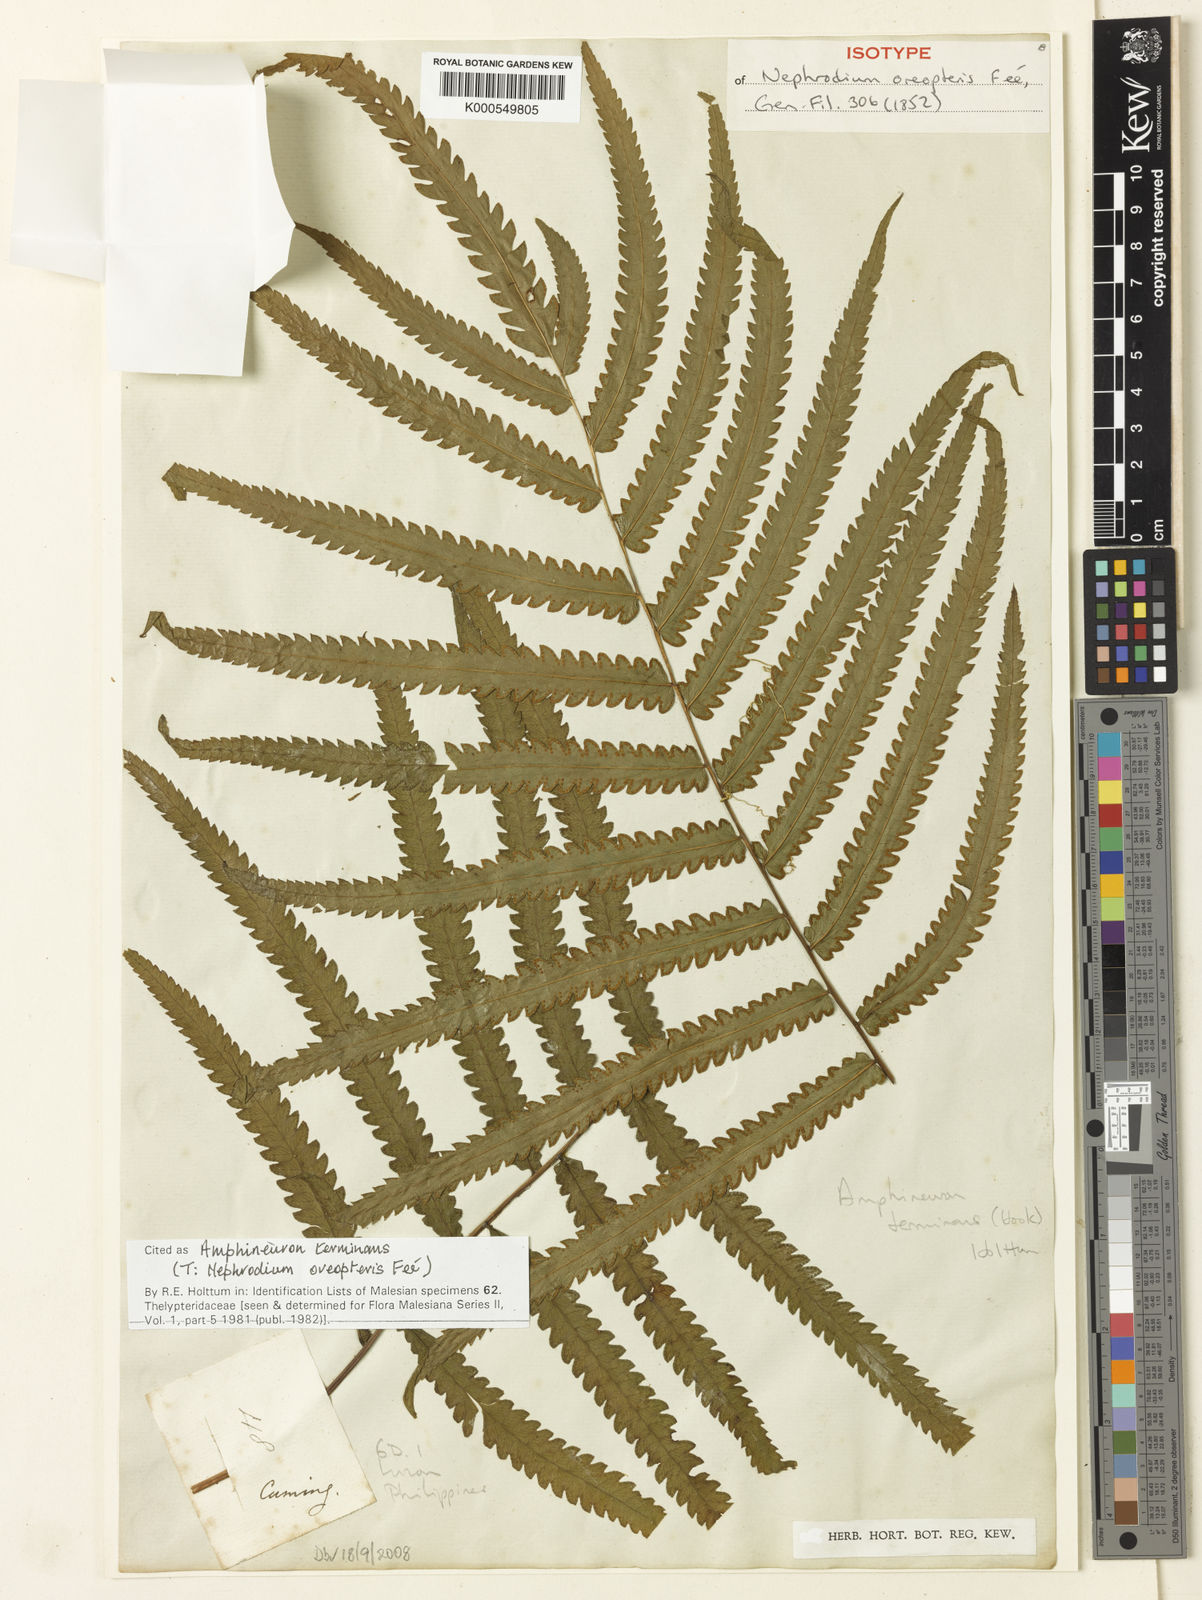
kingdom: Plantae
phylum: Tracheophyta
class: Polypodiopsida
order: Polypodiales
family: Thelypteridaceae
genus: Amblovenatum
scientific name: Amblovenatum terminans
